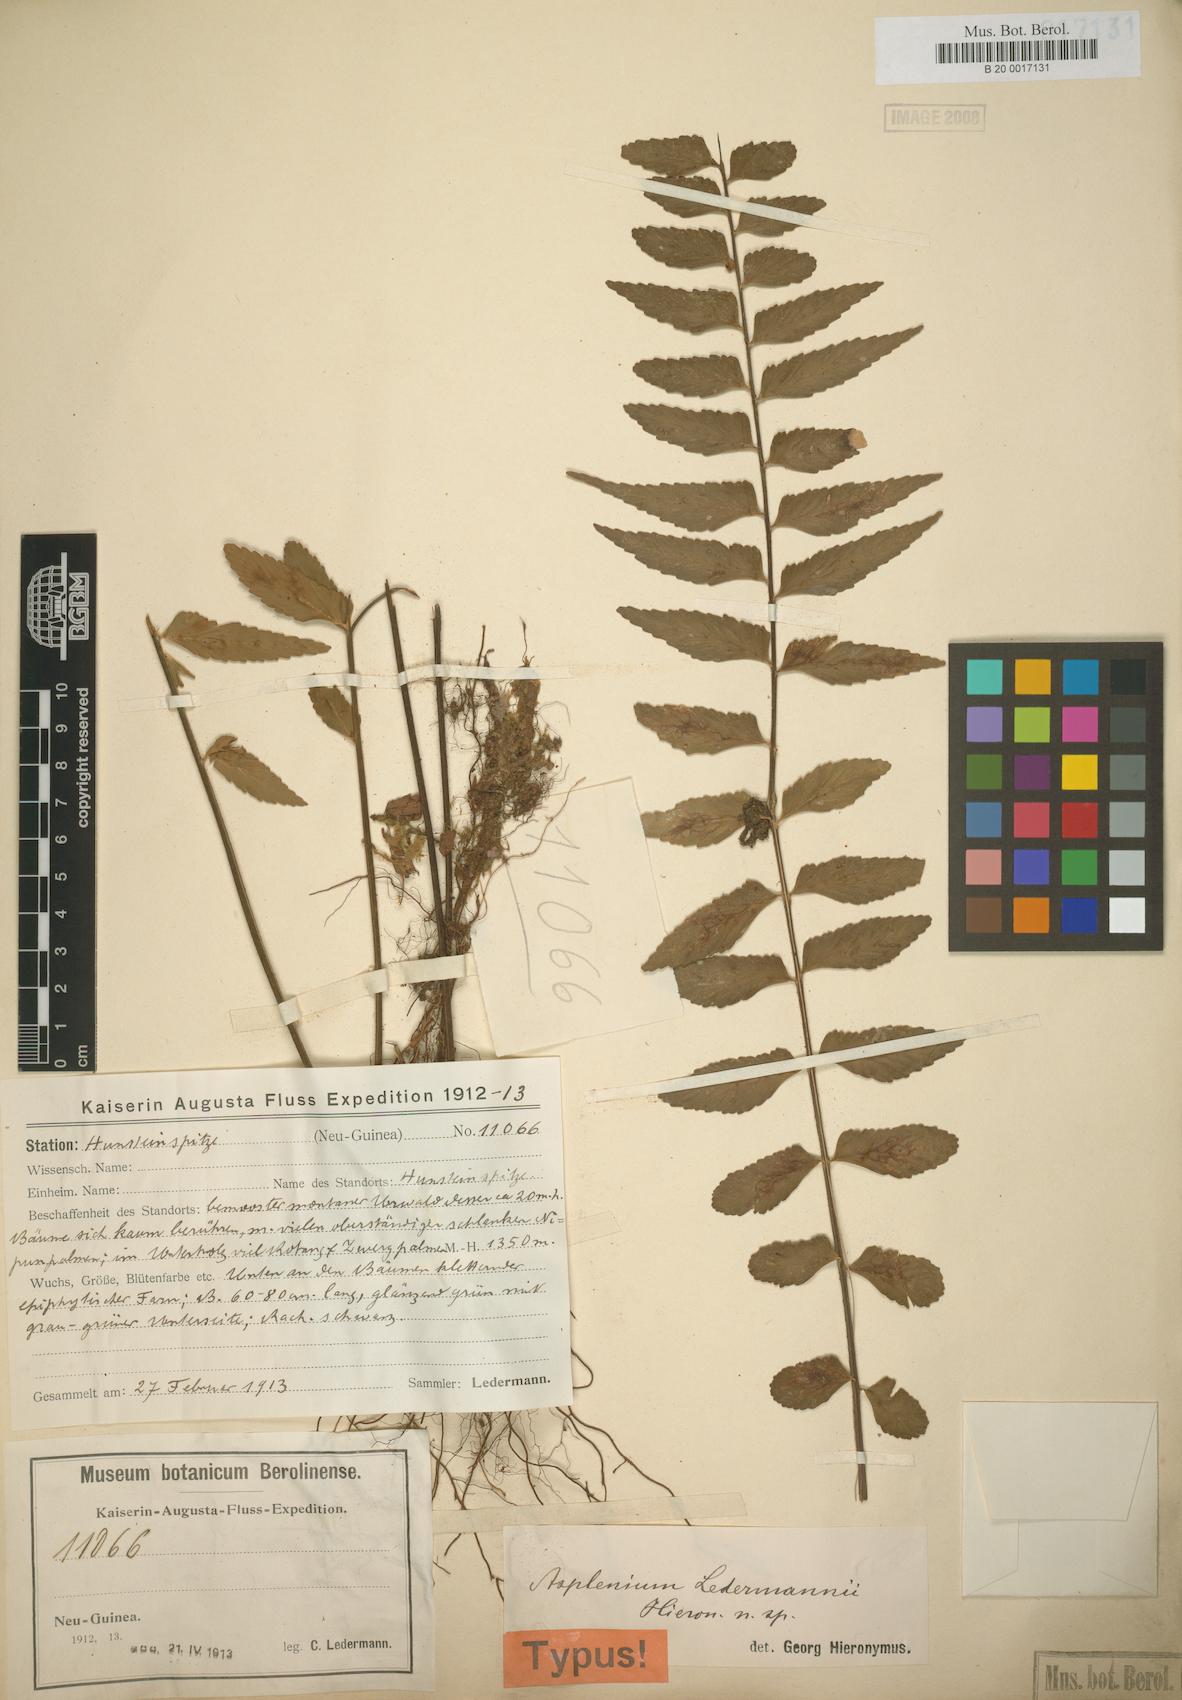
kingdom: Plantae
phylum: Tracheophyta
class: Polypodiopsida
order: Polypodiales
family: Aspleniaceae
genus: Asplenium
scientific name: Asplenium lobulatum
